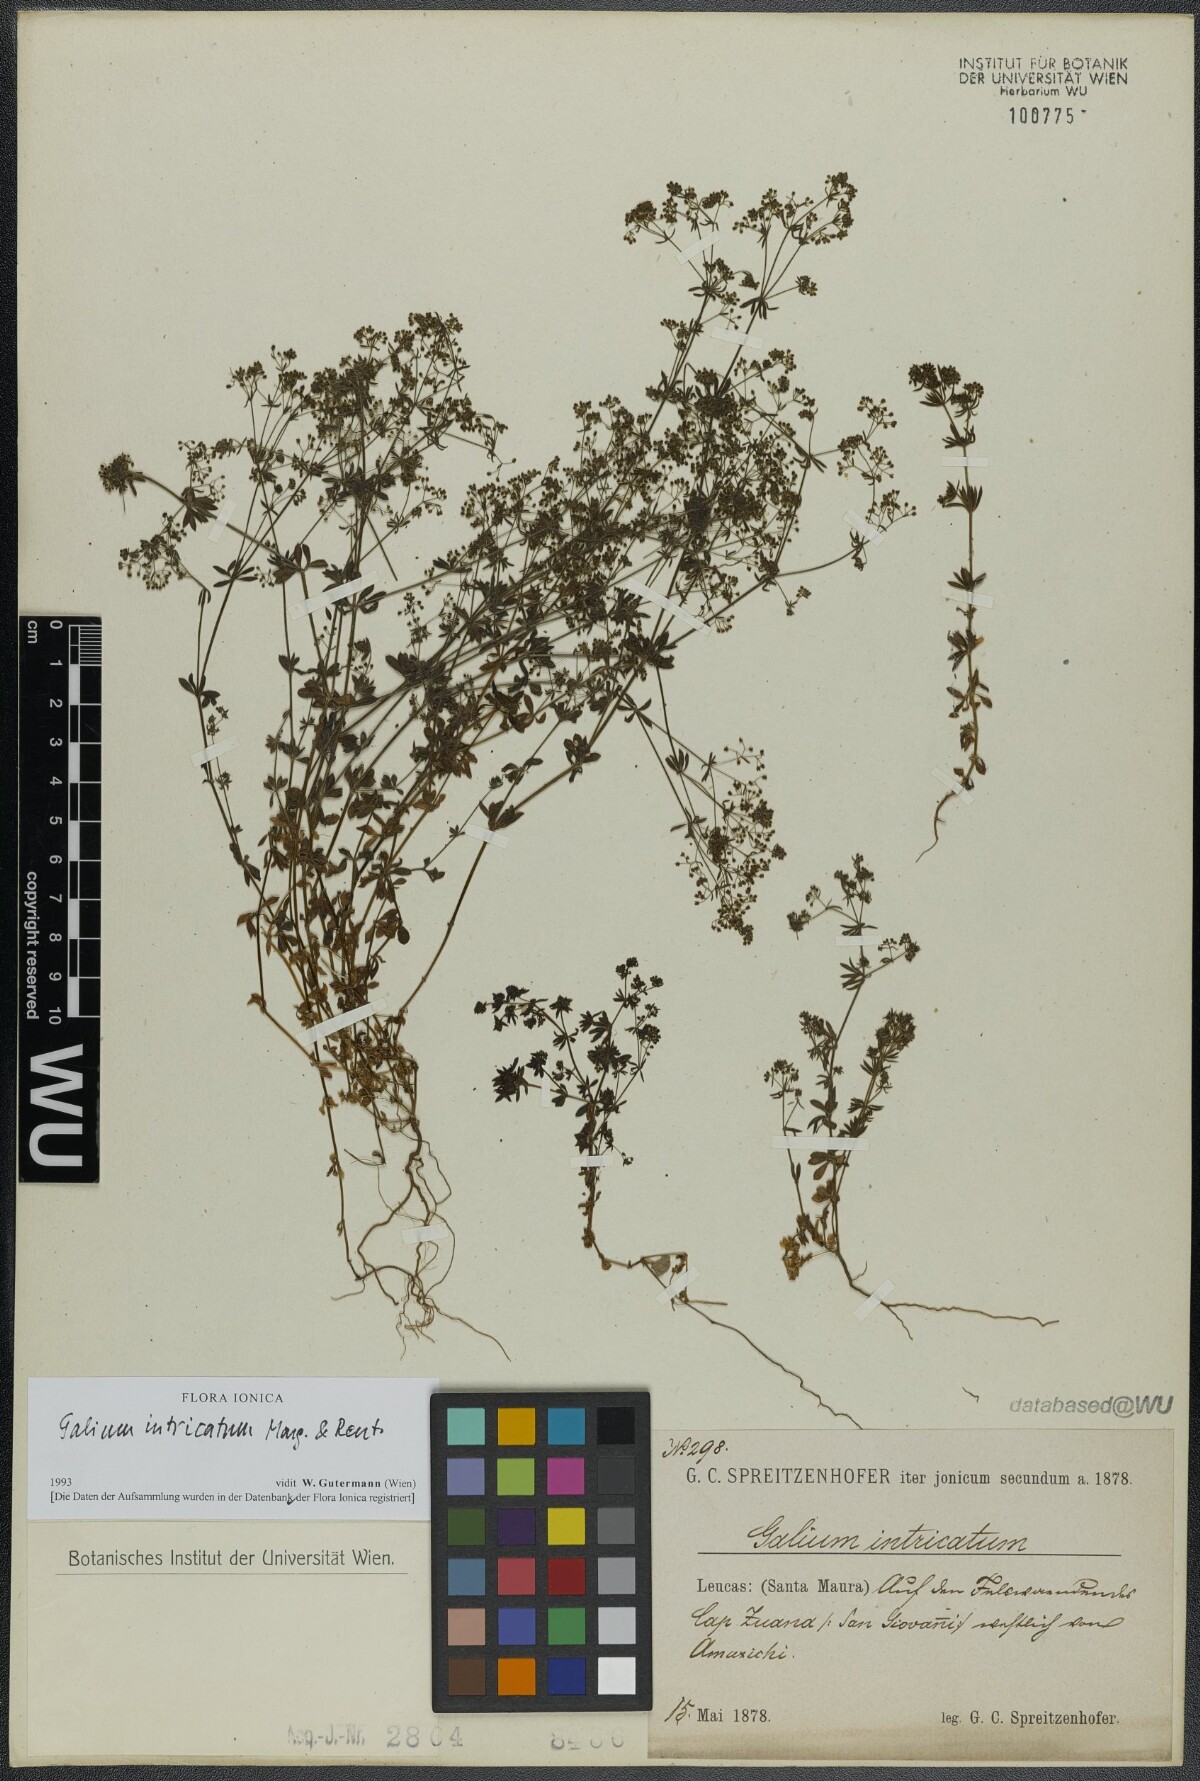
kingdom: Plantae
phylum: Tracheophyta
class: Magnoliopsida
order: Gentianales
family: Rubiaceae
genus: Galium
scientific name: Galium intricatum
